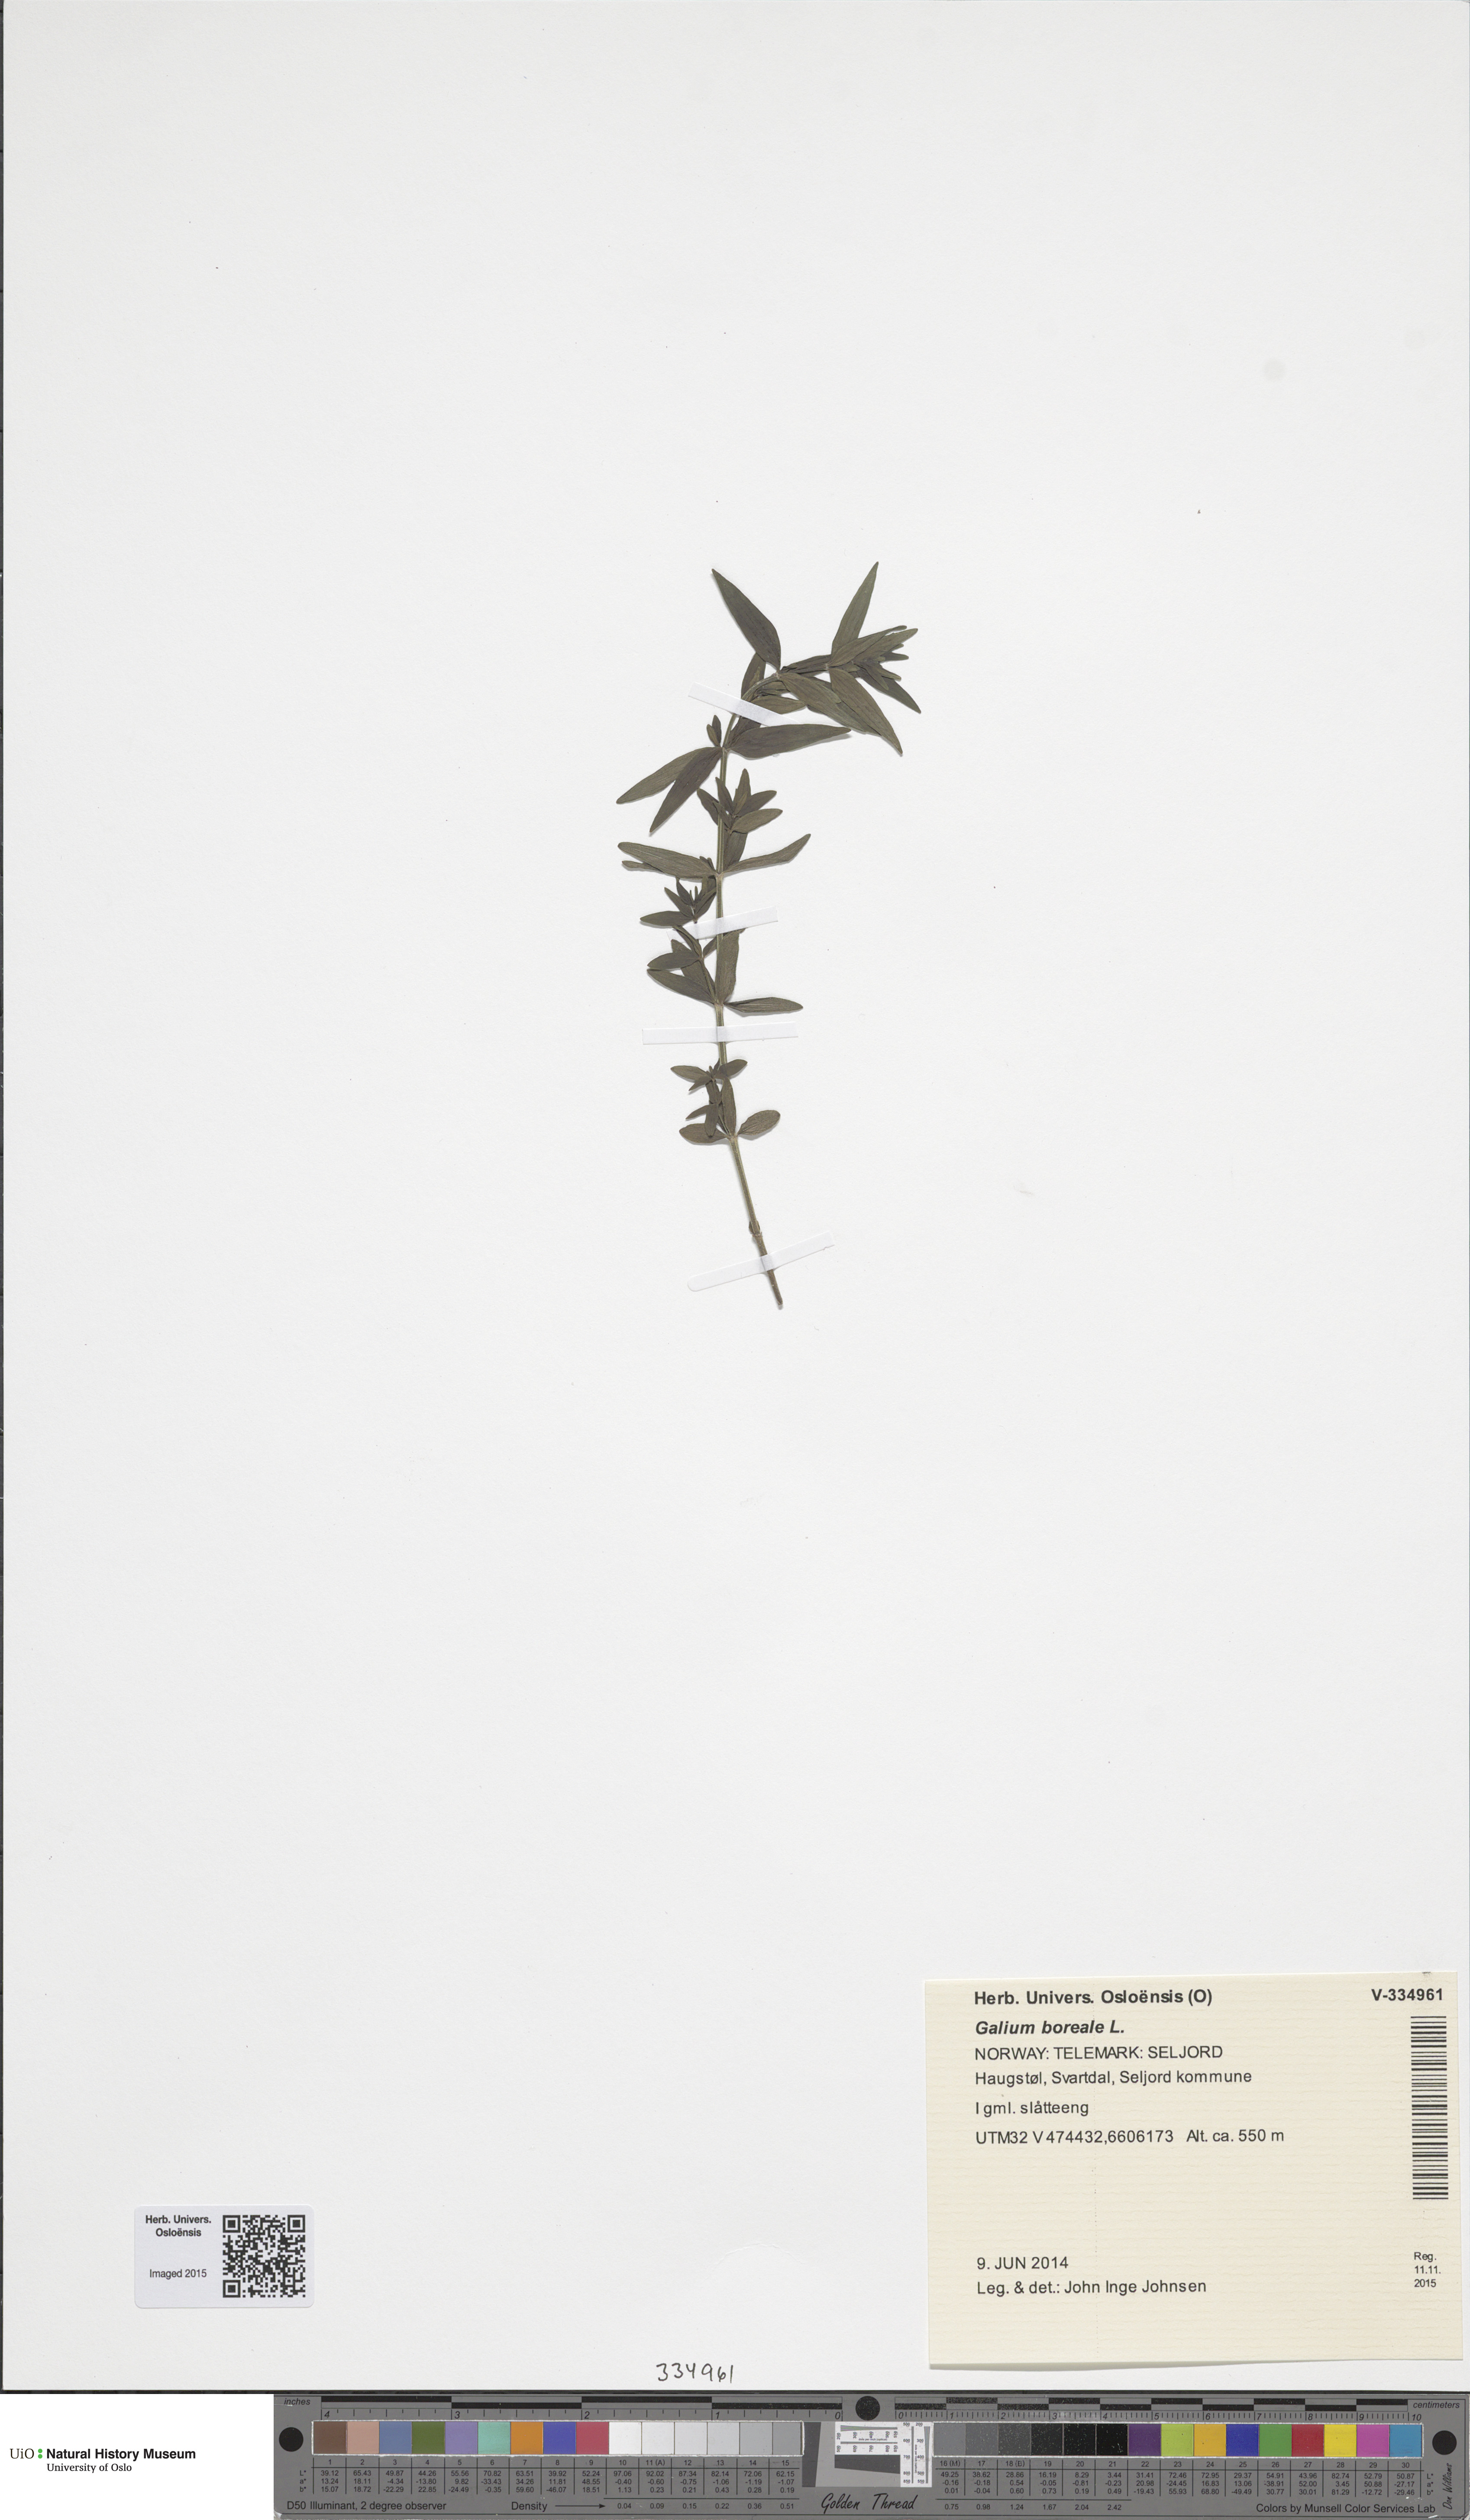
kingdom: Plantae
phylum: Tracheophyta
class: Magnoliopsida
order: Gentianales
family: Rubiaceae
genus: Galium
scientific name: Galium boreale
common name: Northern bedstraw
